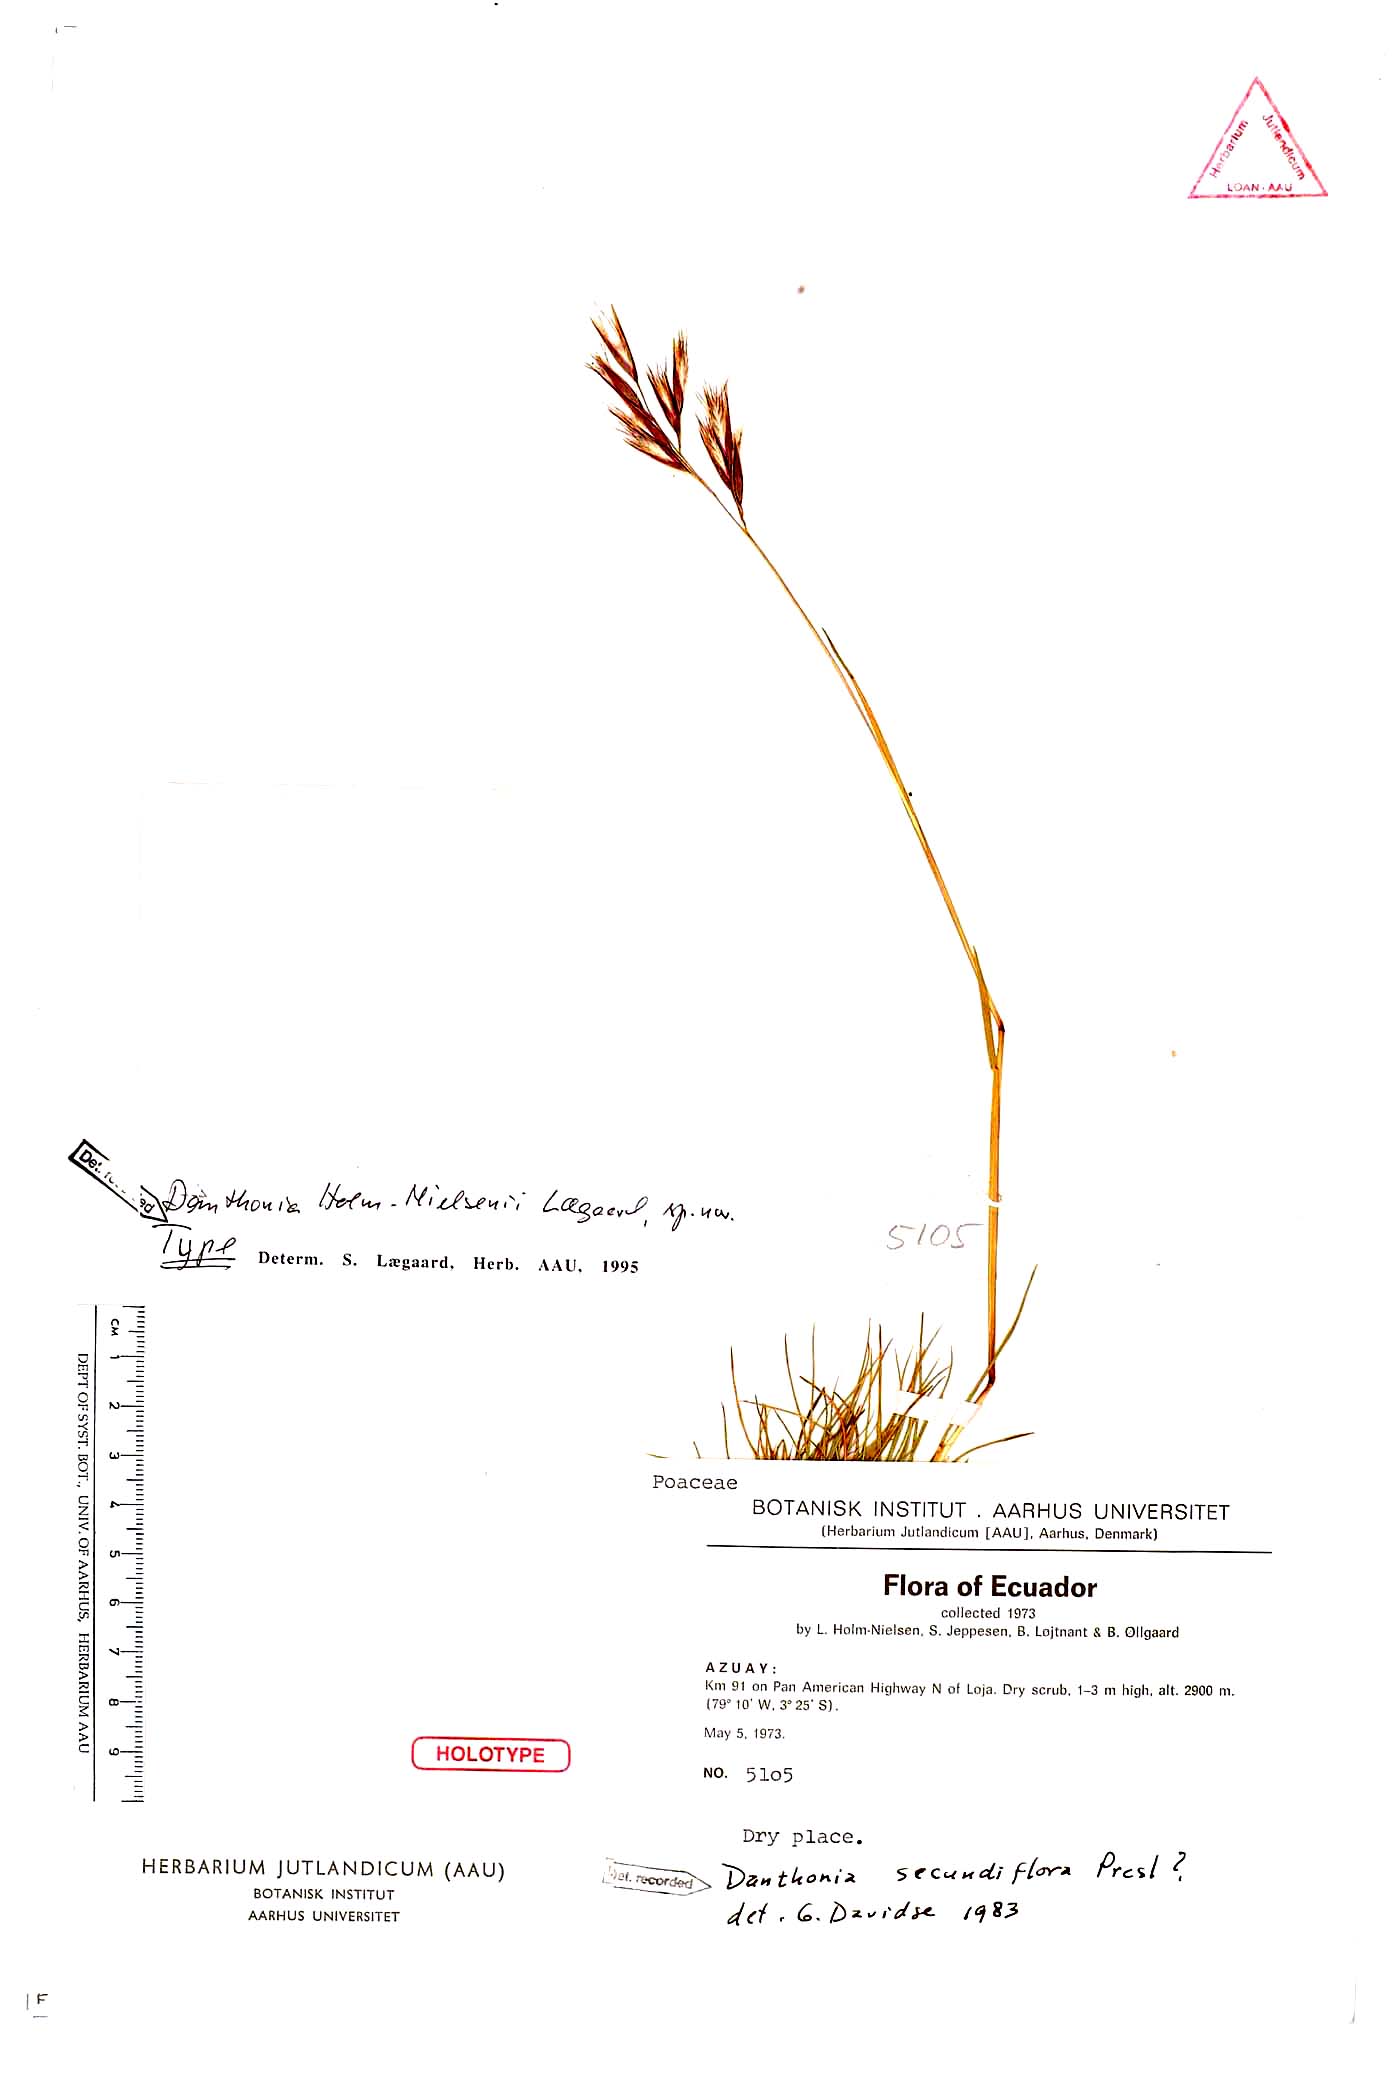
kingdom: Plantae
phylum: Tracheophyta
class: Liliopsida
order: Poales
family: Poaceae
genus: Danthonia
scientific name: Danthonia holm-nielsenii
